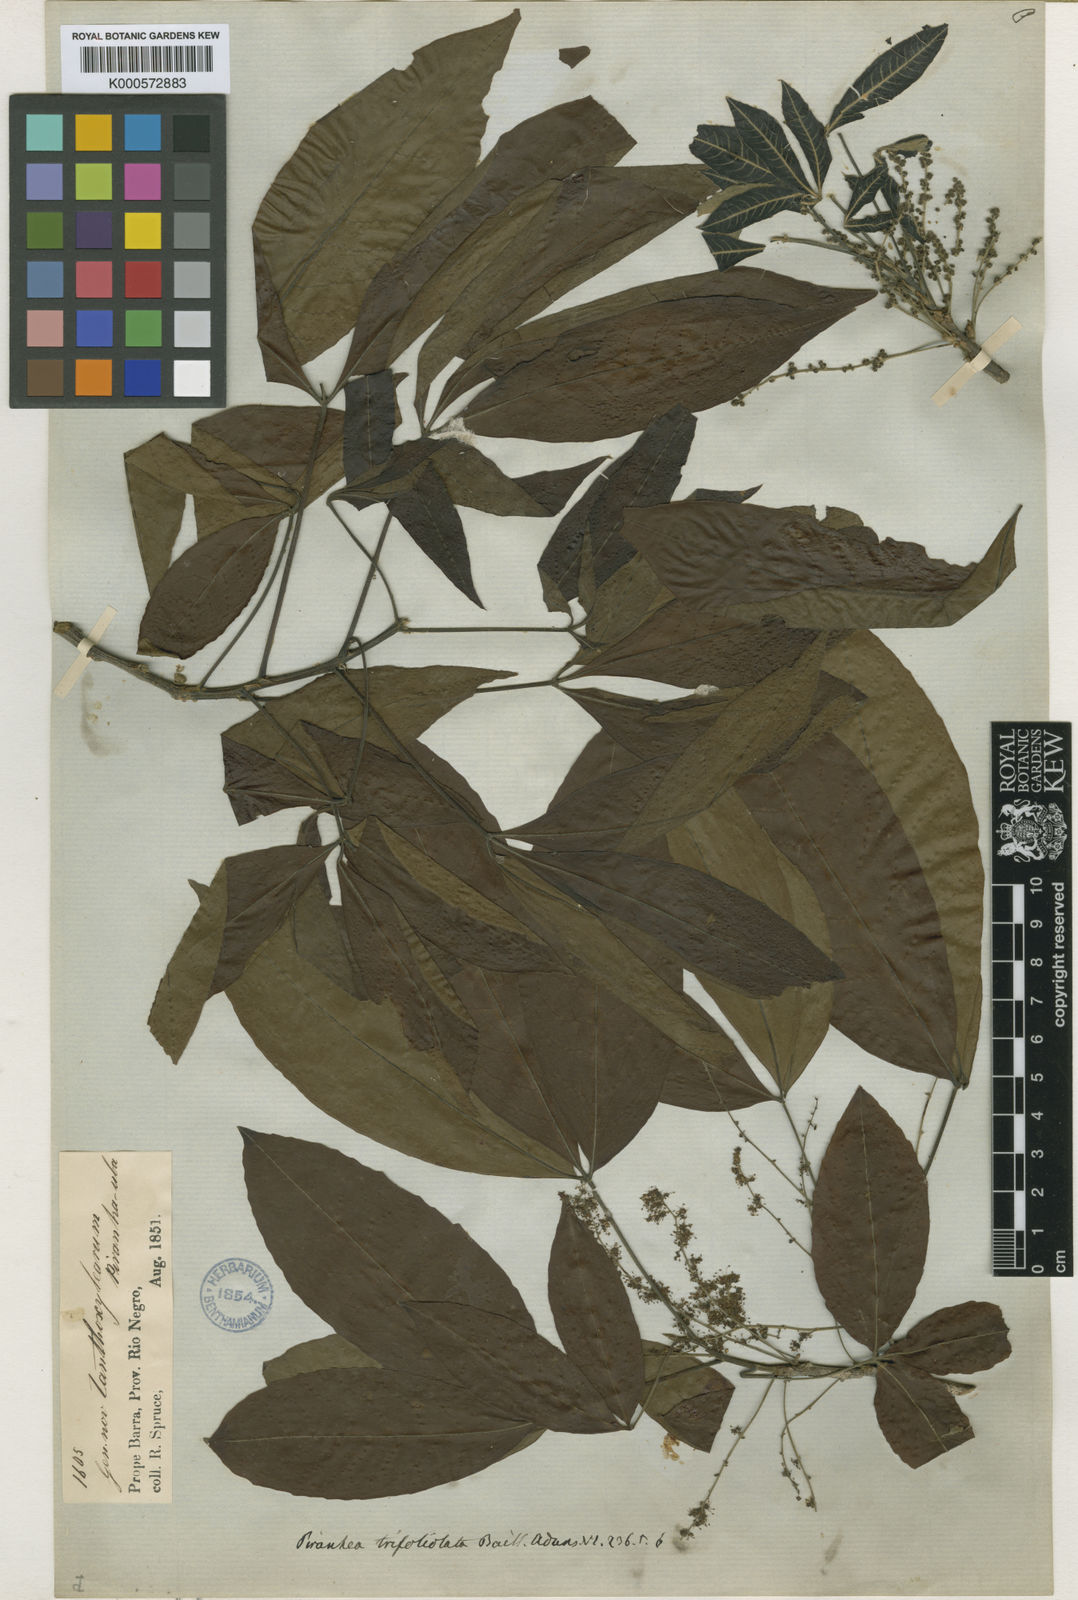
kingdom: Plantae
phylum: Tracheophyta
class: Magnoliopsida
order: Malpighiales
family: Picrodendraceae
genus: Piranhea
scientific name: Piranhea trifoliolata
